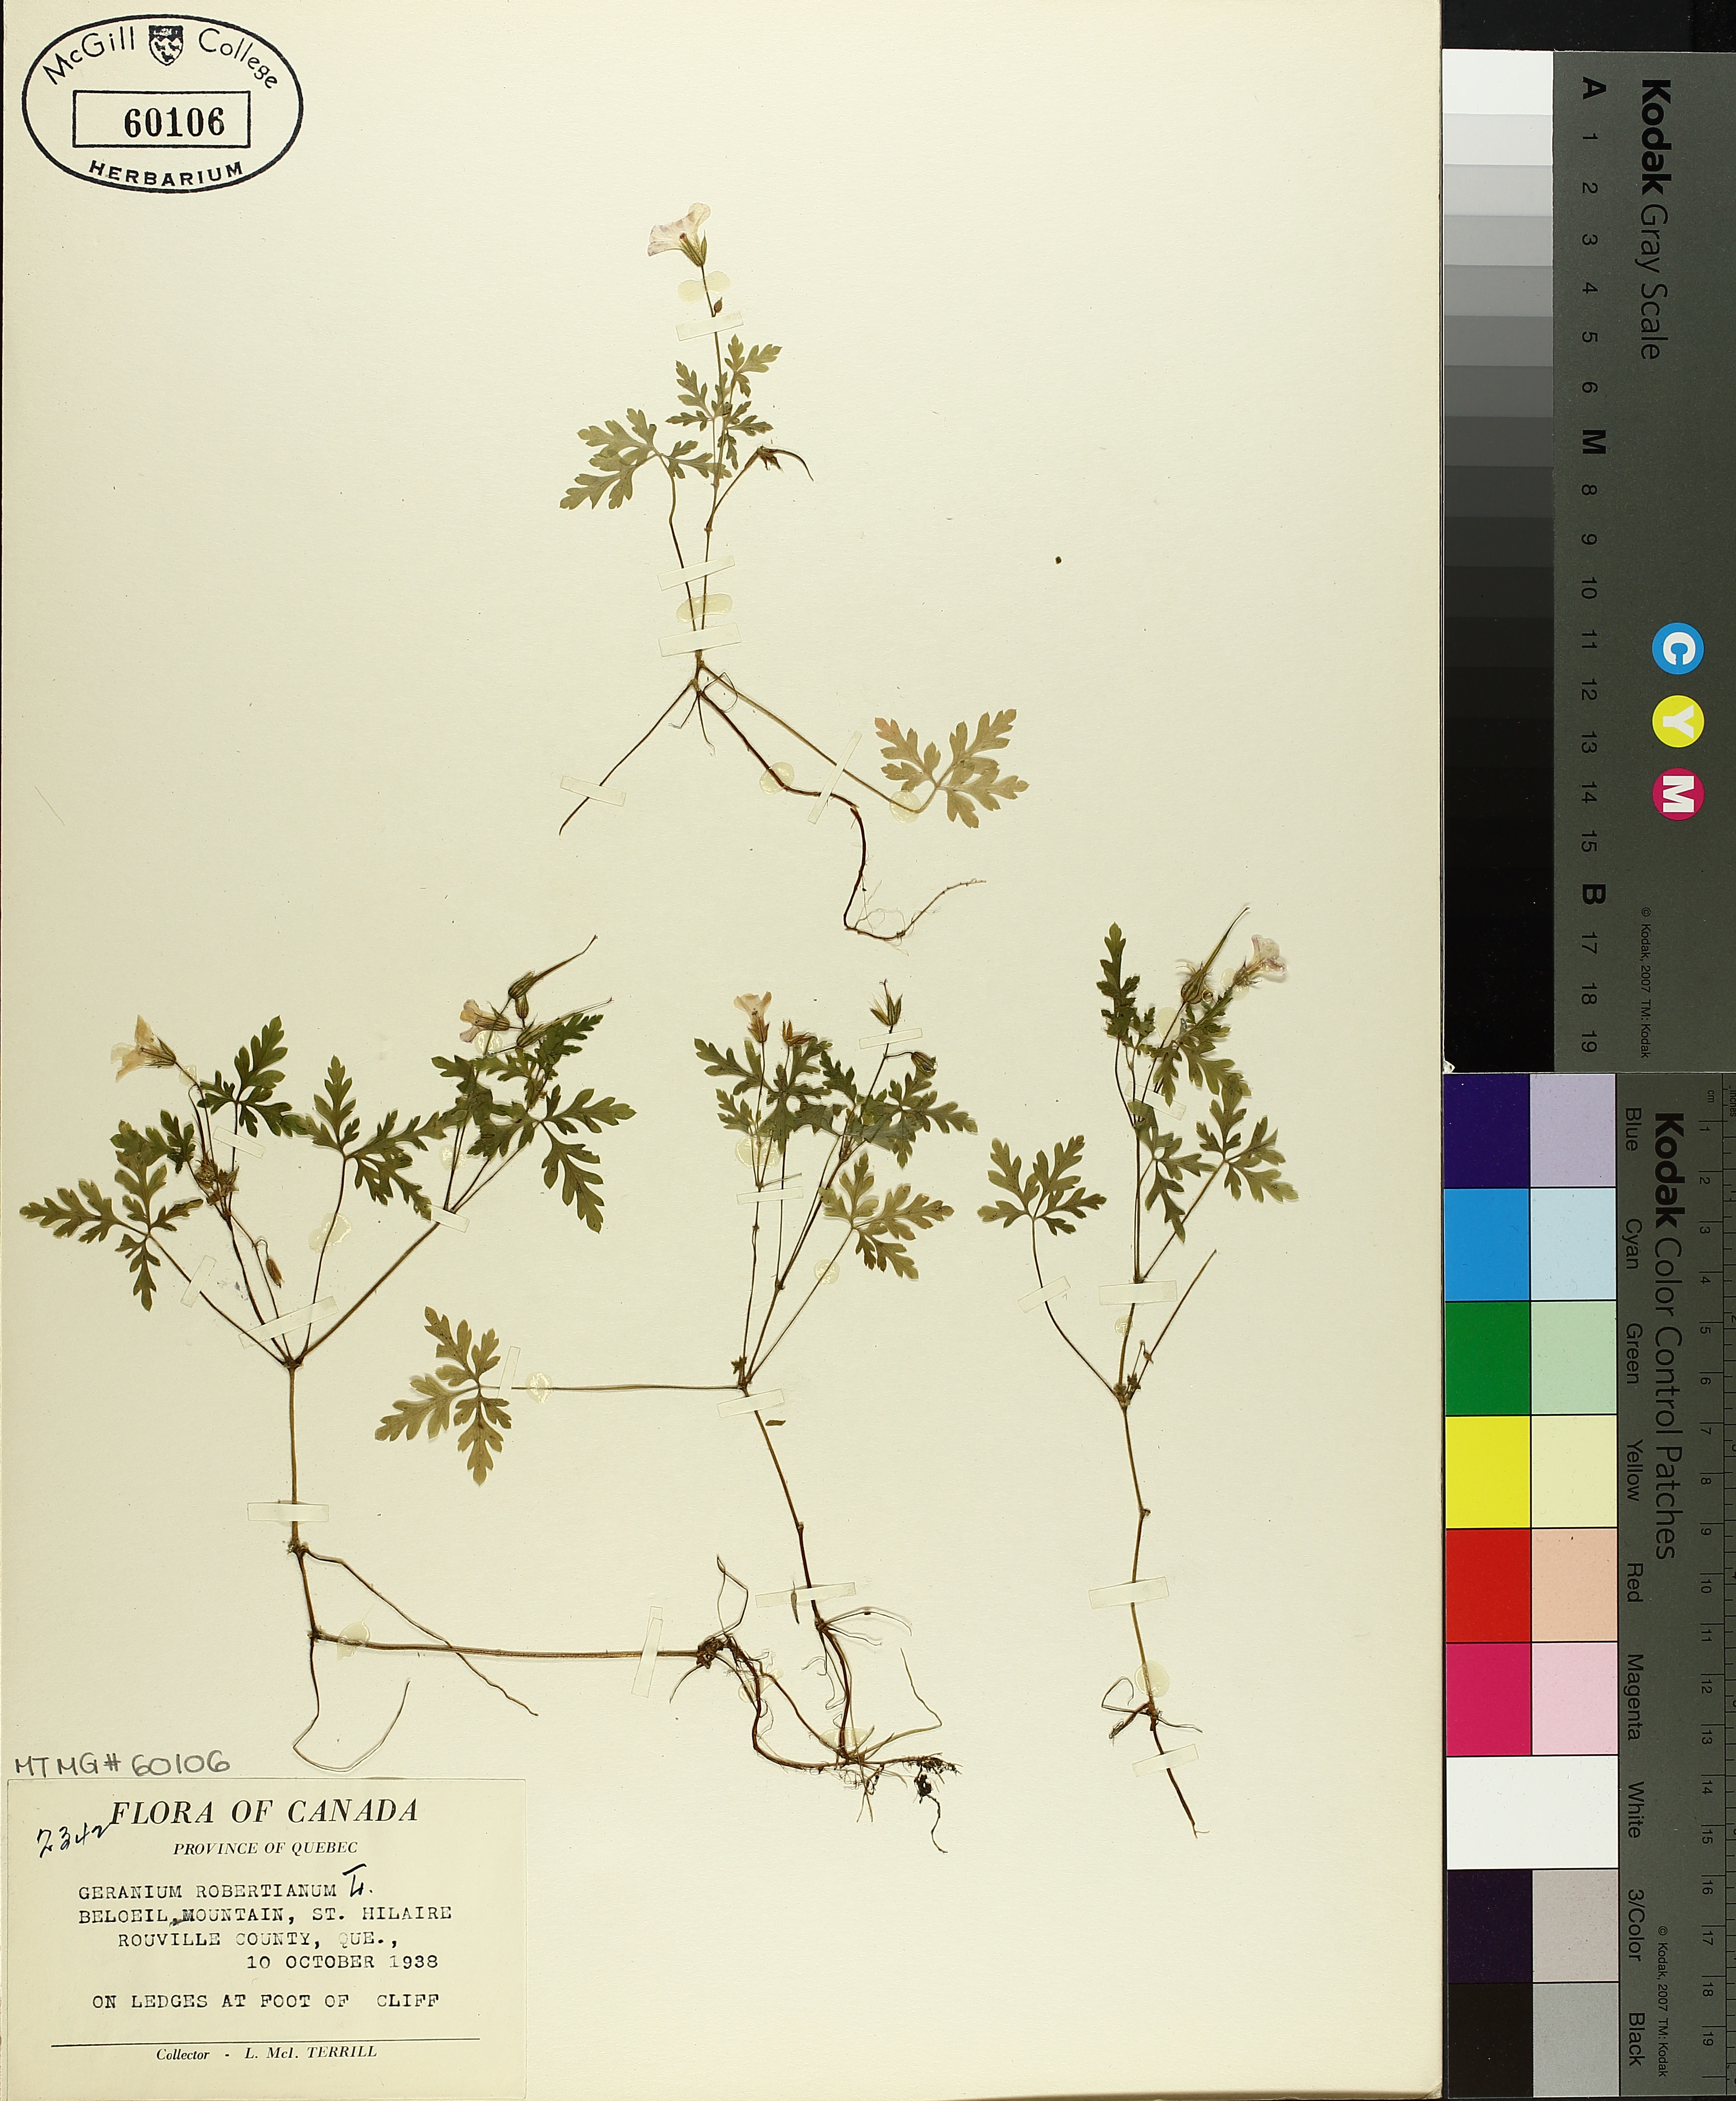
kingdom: Plantae
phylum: Tracheophyta
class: Magnoliopsida
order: Geraniales
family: Geraniaceae
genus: Geranium
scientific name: Geranium robertianum
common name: Herb-robert
